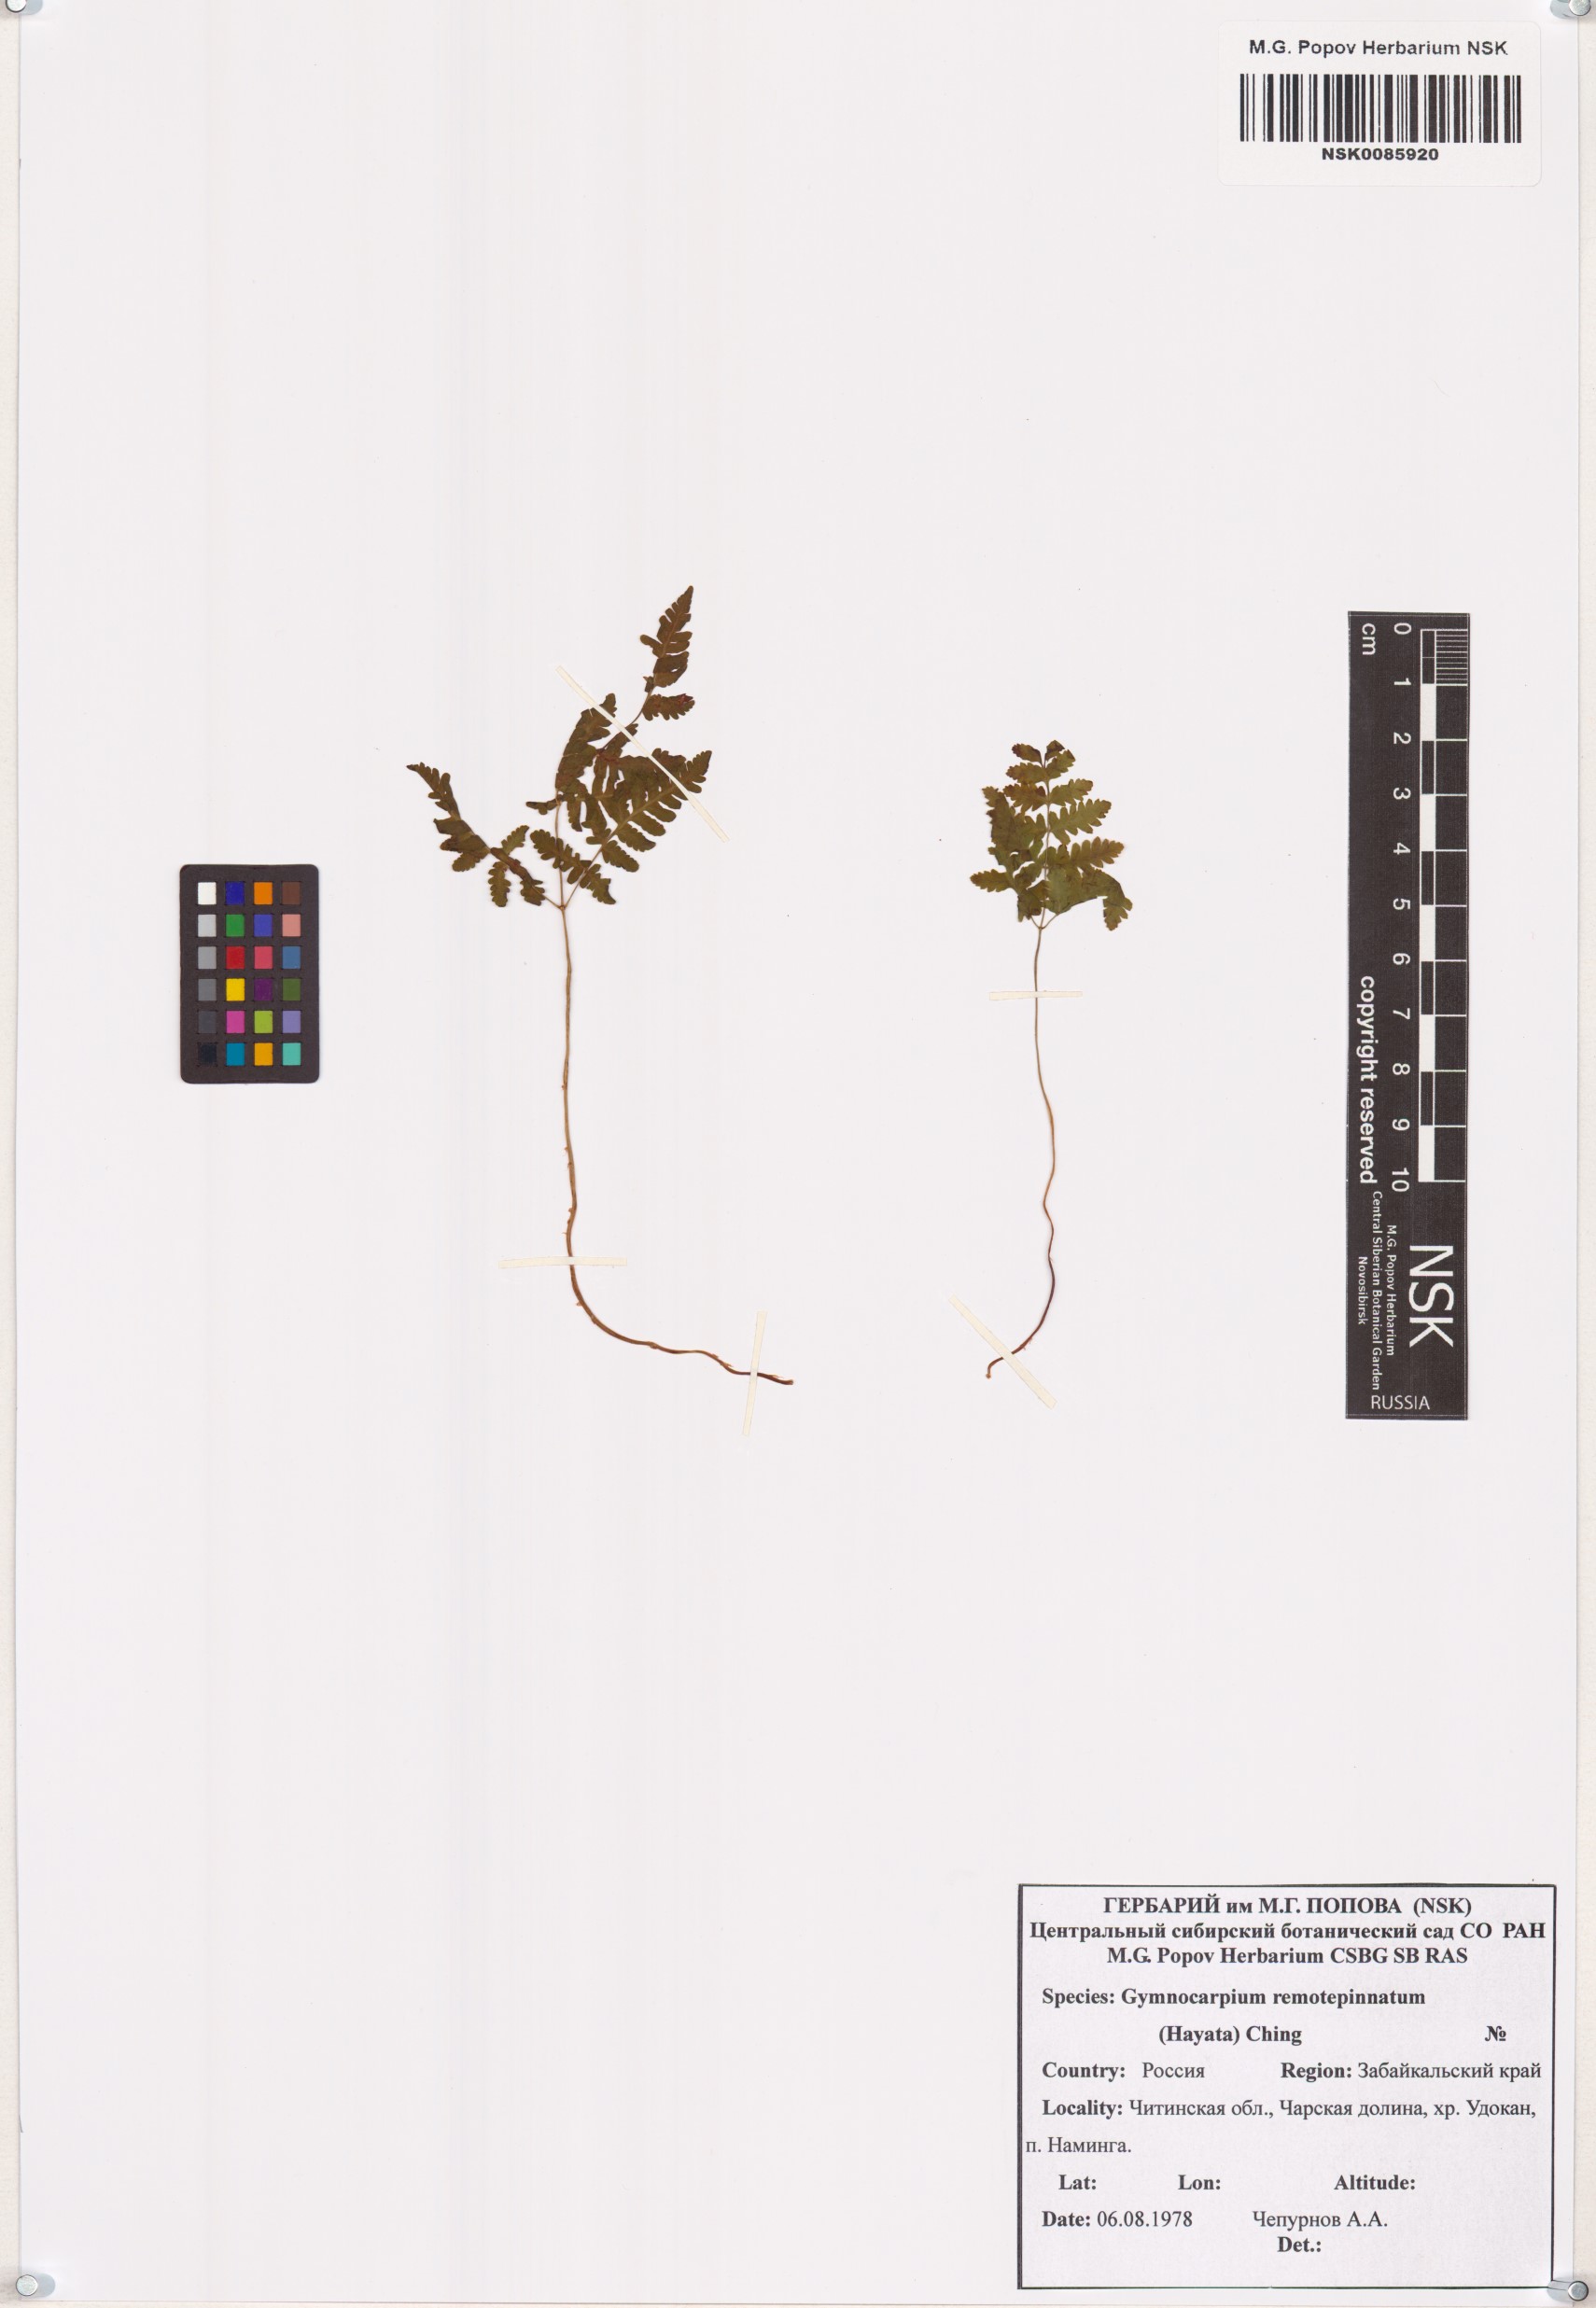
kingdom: Plantae
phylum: Tracheophyta
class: Polypodiopsida
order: Polypodiales
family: Cystopteridaceae
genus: Gymnocarpium
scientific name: Gymnocarpium remotepinnatum
